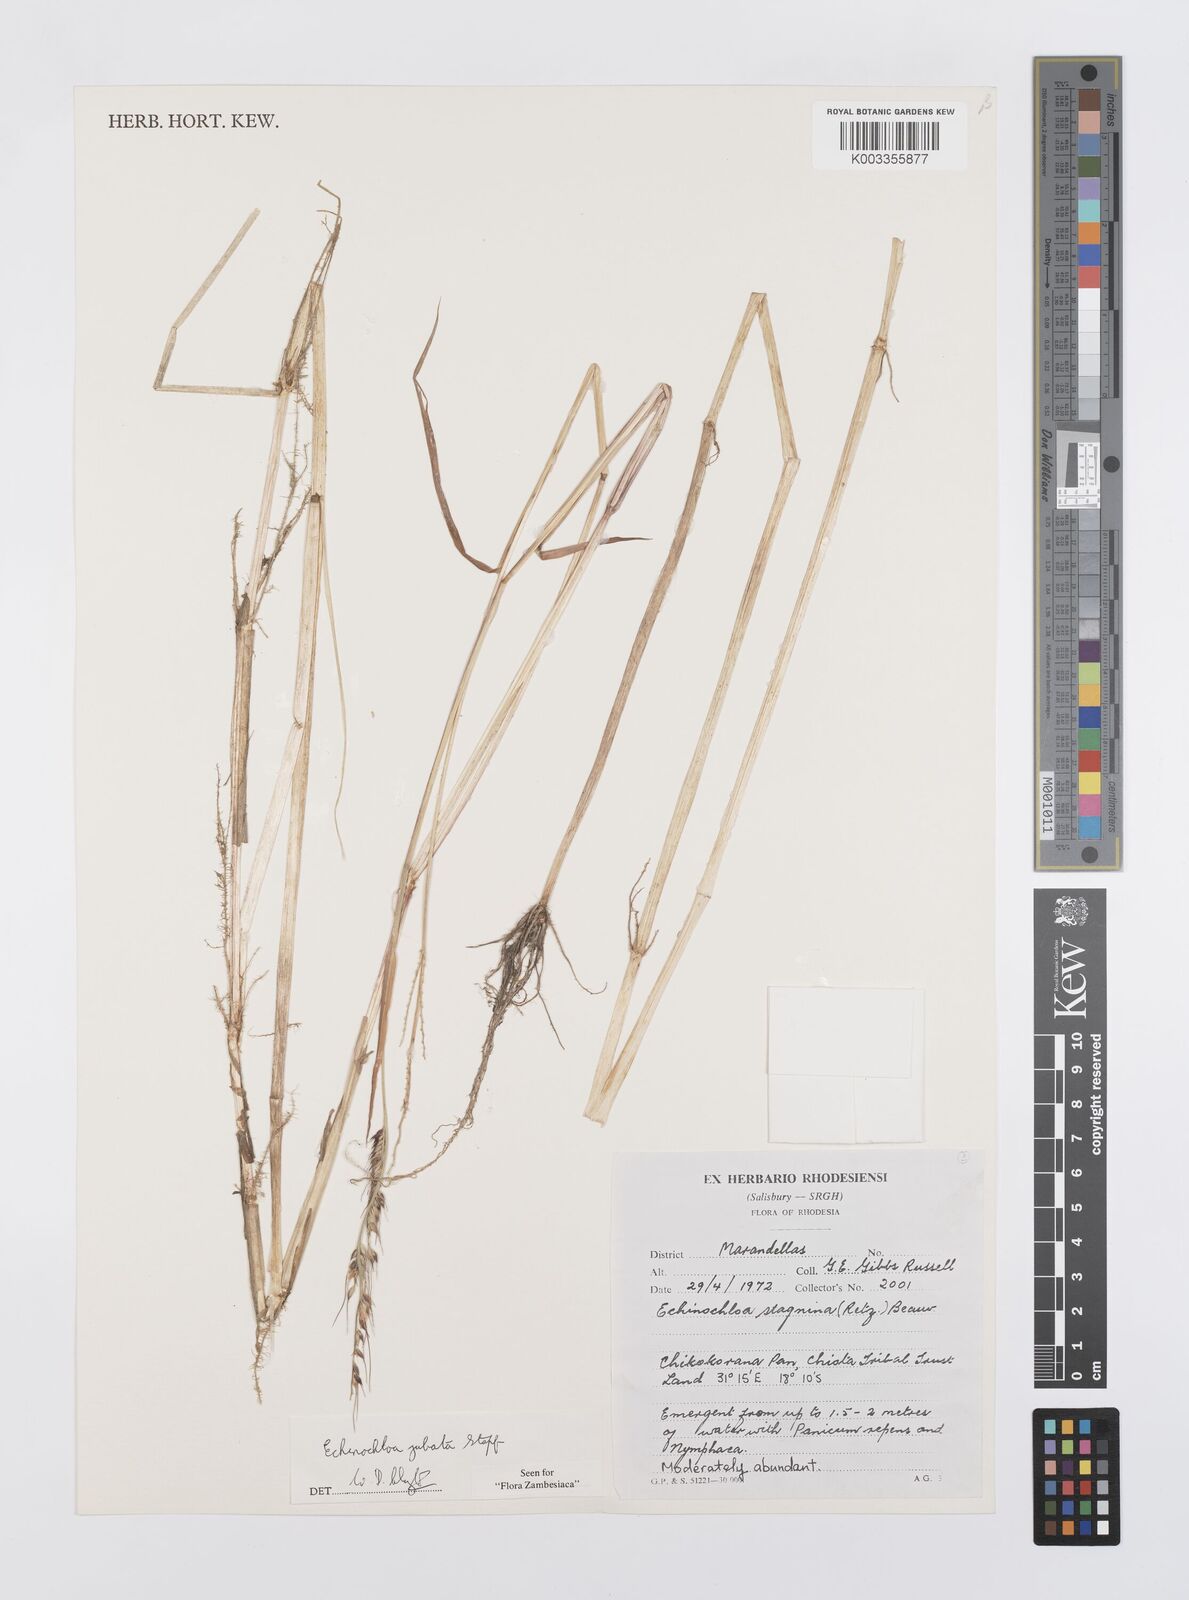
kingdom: Plantae
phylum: Tracheophyta
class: Liliopsida
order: Poales
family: Poaceae
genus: Echinochloa
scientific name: Echinochloa jubata
